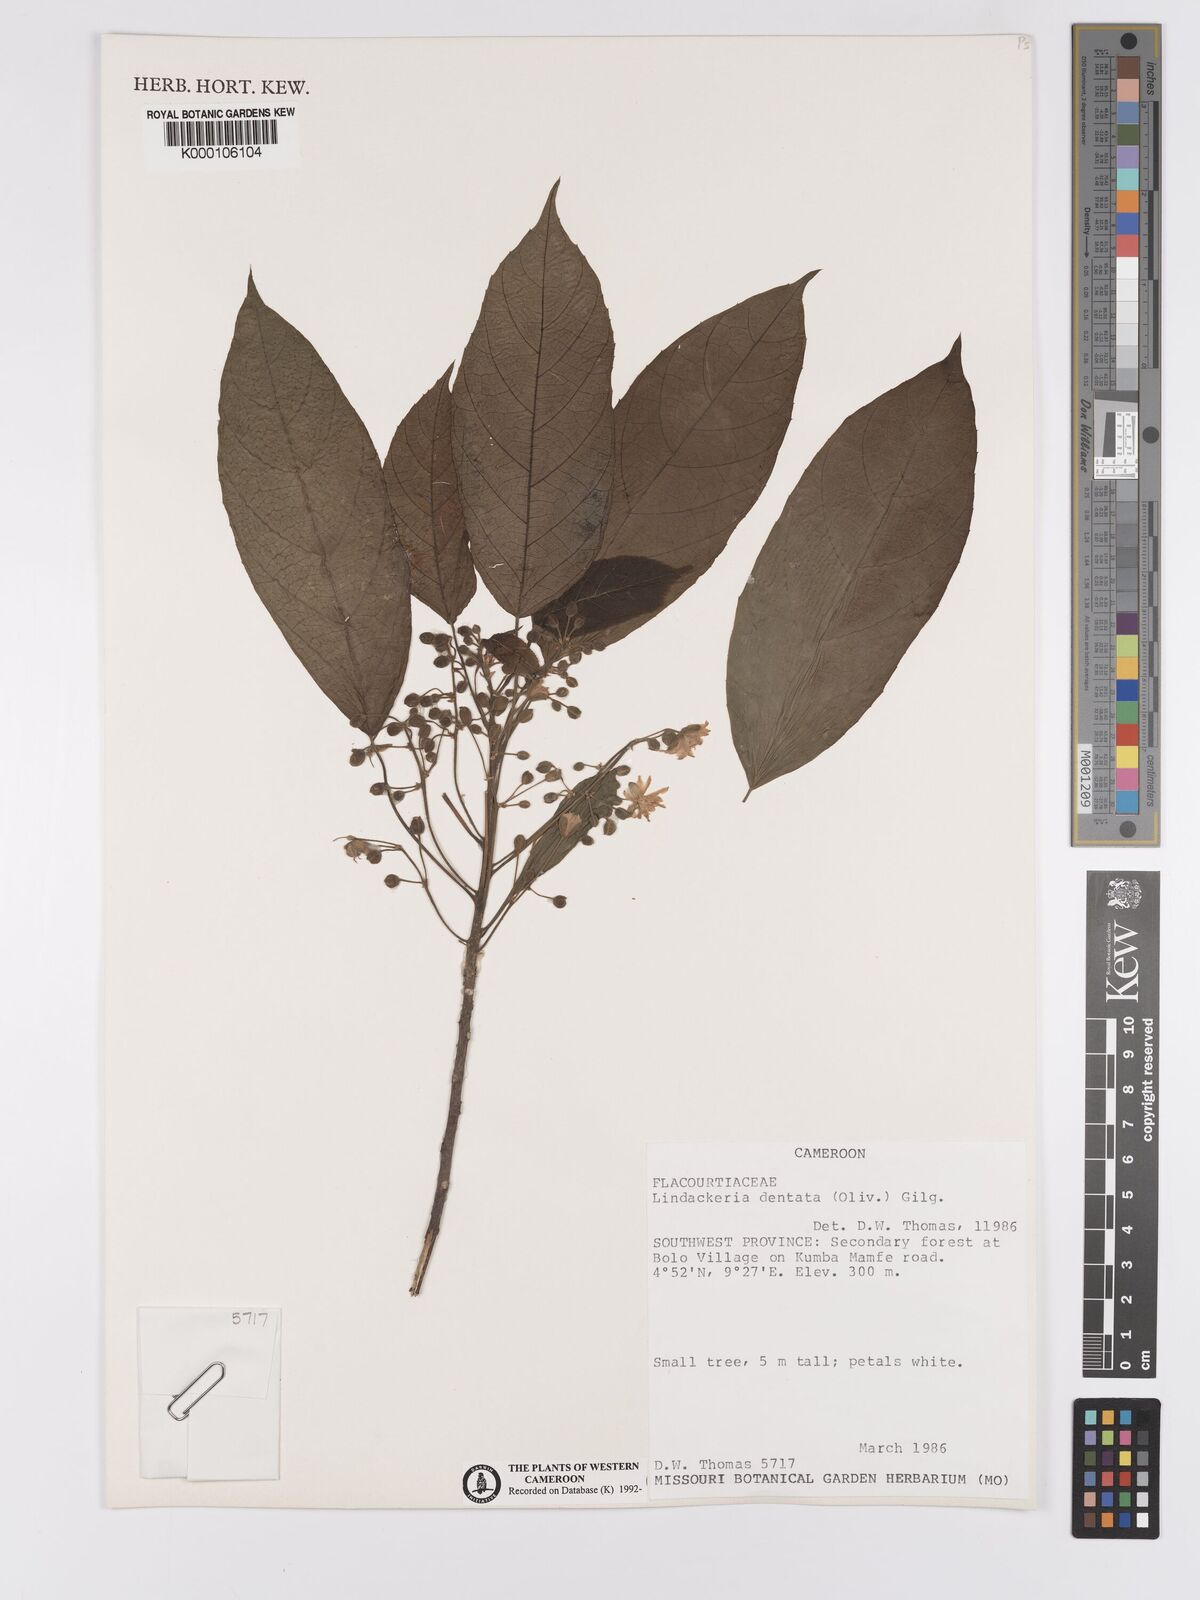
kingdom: Plantae
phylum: Tracheophyta
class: Magnoliopsida
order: Malpighiales
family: Achariaceae
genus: Lindackeria
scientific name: Lindackeria dentata
